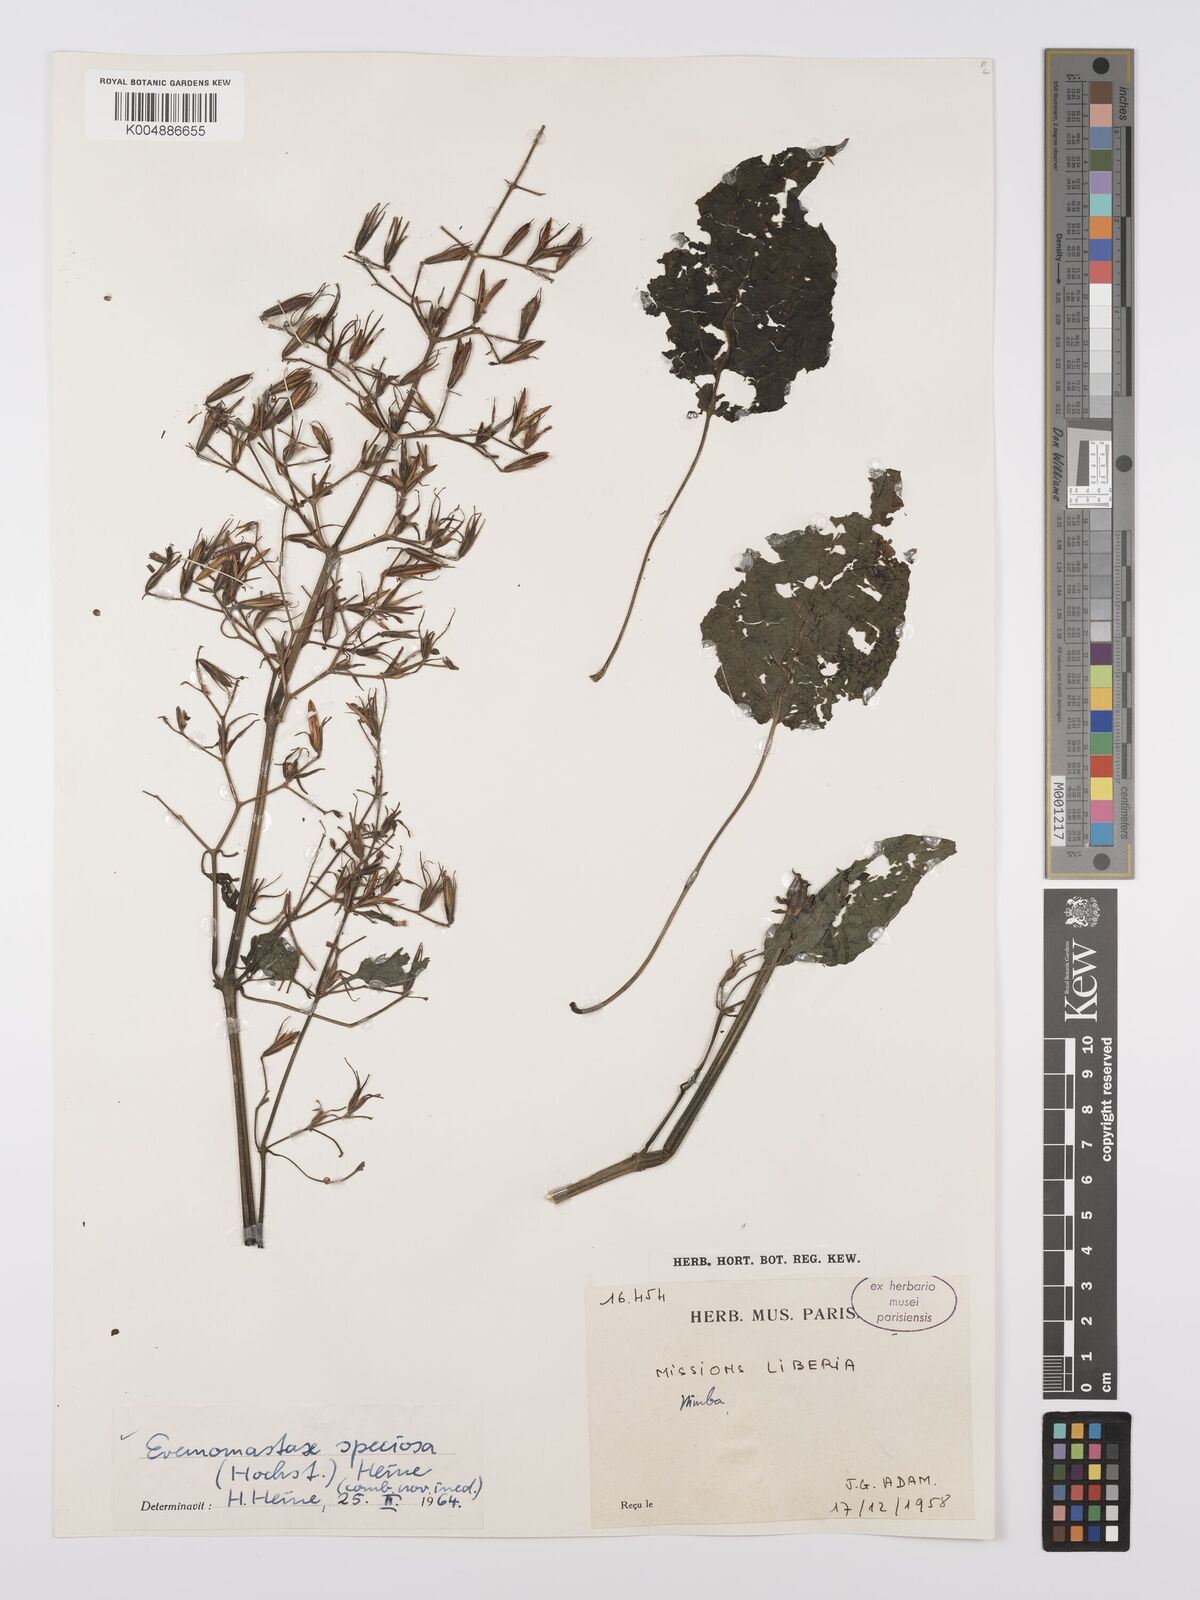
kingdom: Plantae
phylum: Tracheophyta
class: Magnoliopsida
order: Lamiales
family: Acanthaceae
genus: Eremomastax
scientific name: Eremomastax speciosa
